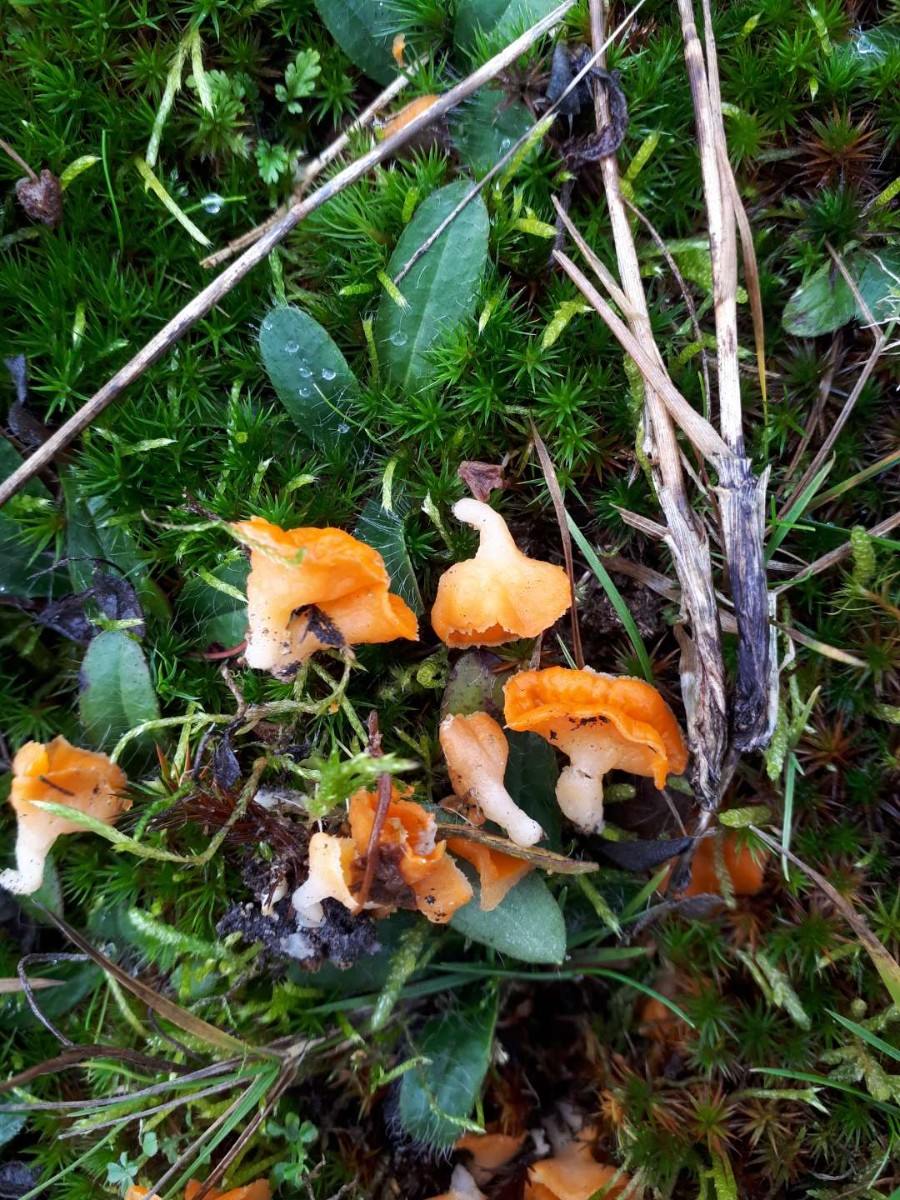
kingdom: Fungi
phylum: Ascomycota
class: Pezizomycetes
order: Pezizales
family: Pyronemataceae
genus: Neottiella
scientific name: Neottiella
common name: mosbæger
